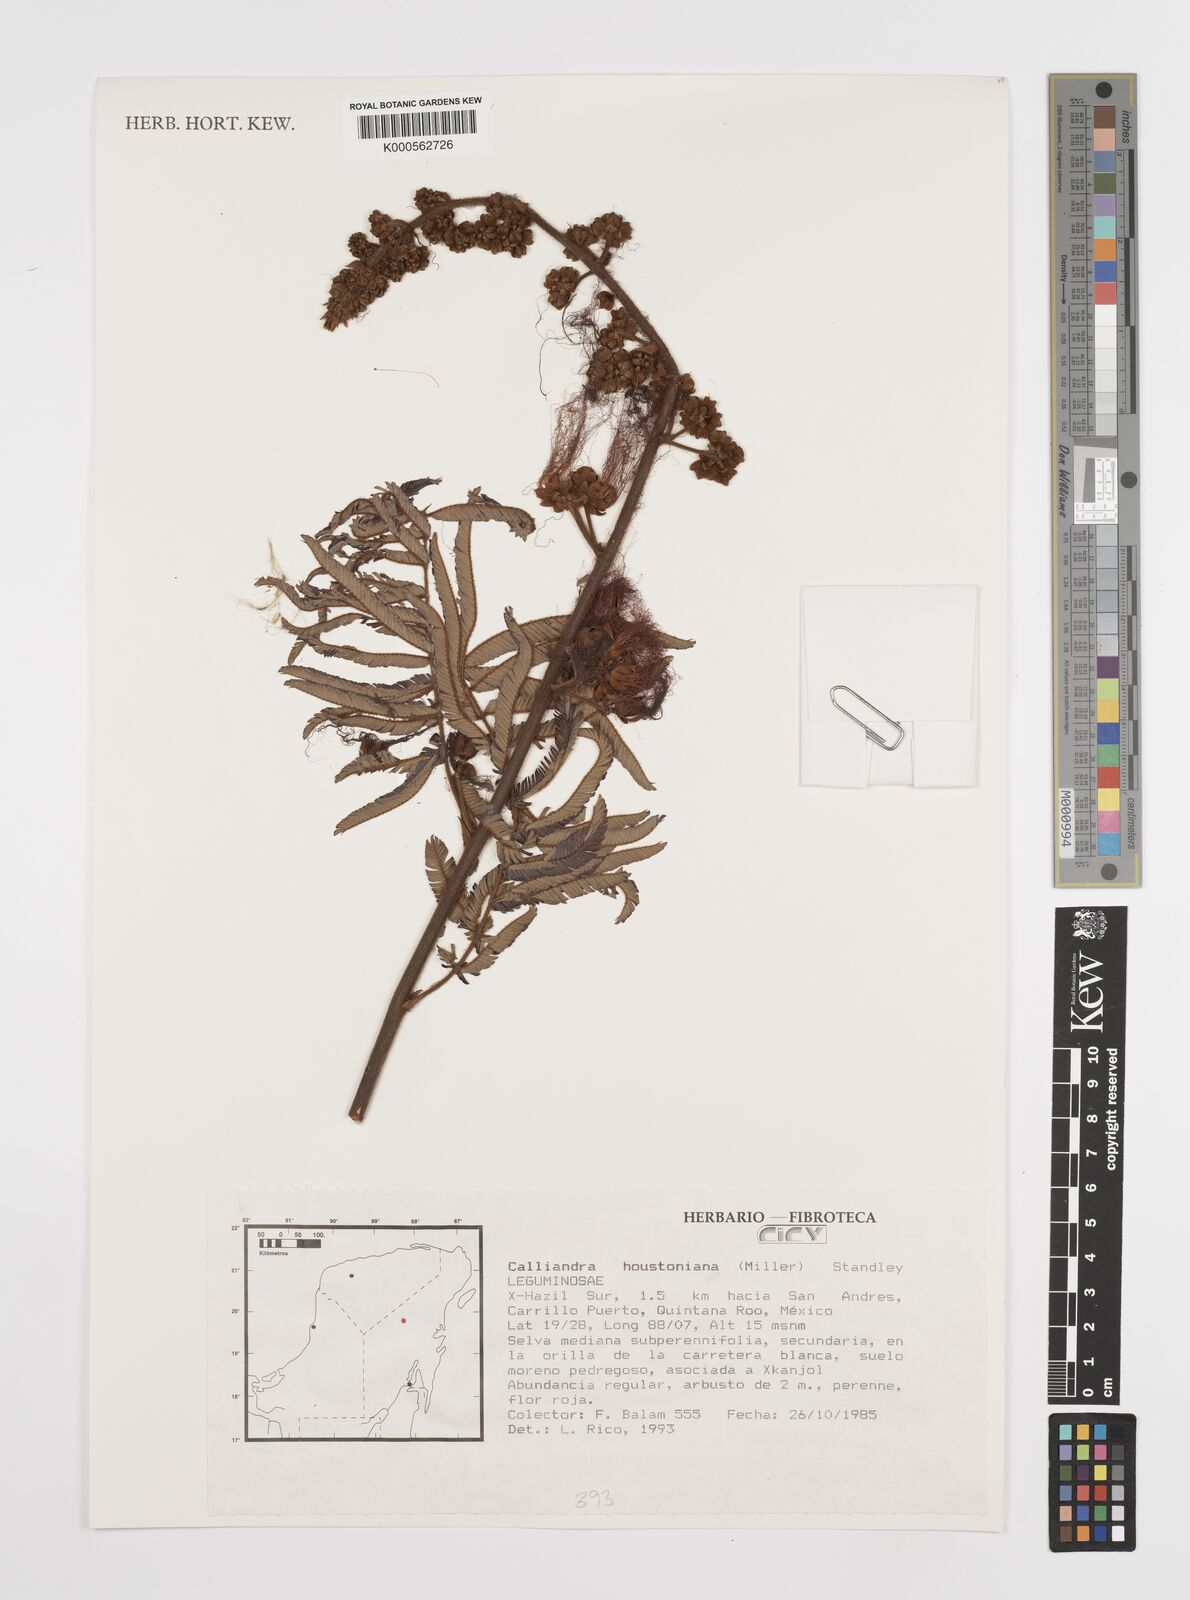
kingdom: Plantae
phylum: Tracheophyta
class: Magnoliopsida
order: Fabales
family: Fabaceae
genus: Calliandra
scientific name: Calliandra houstoniana
